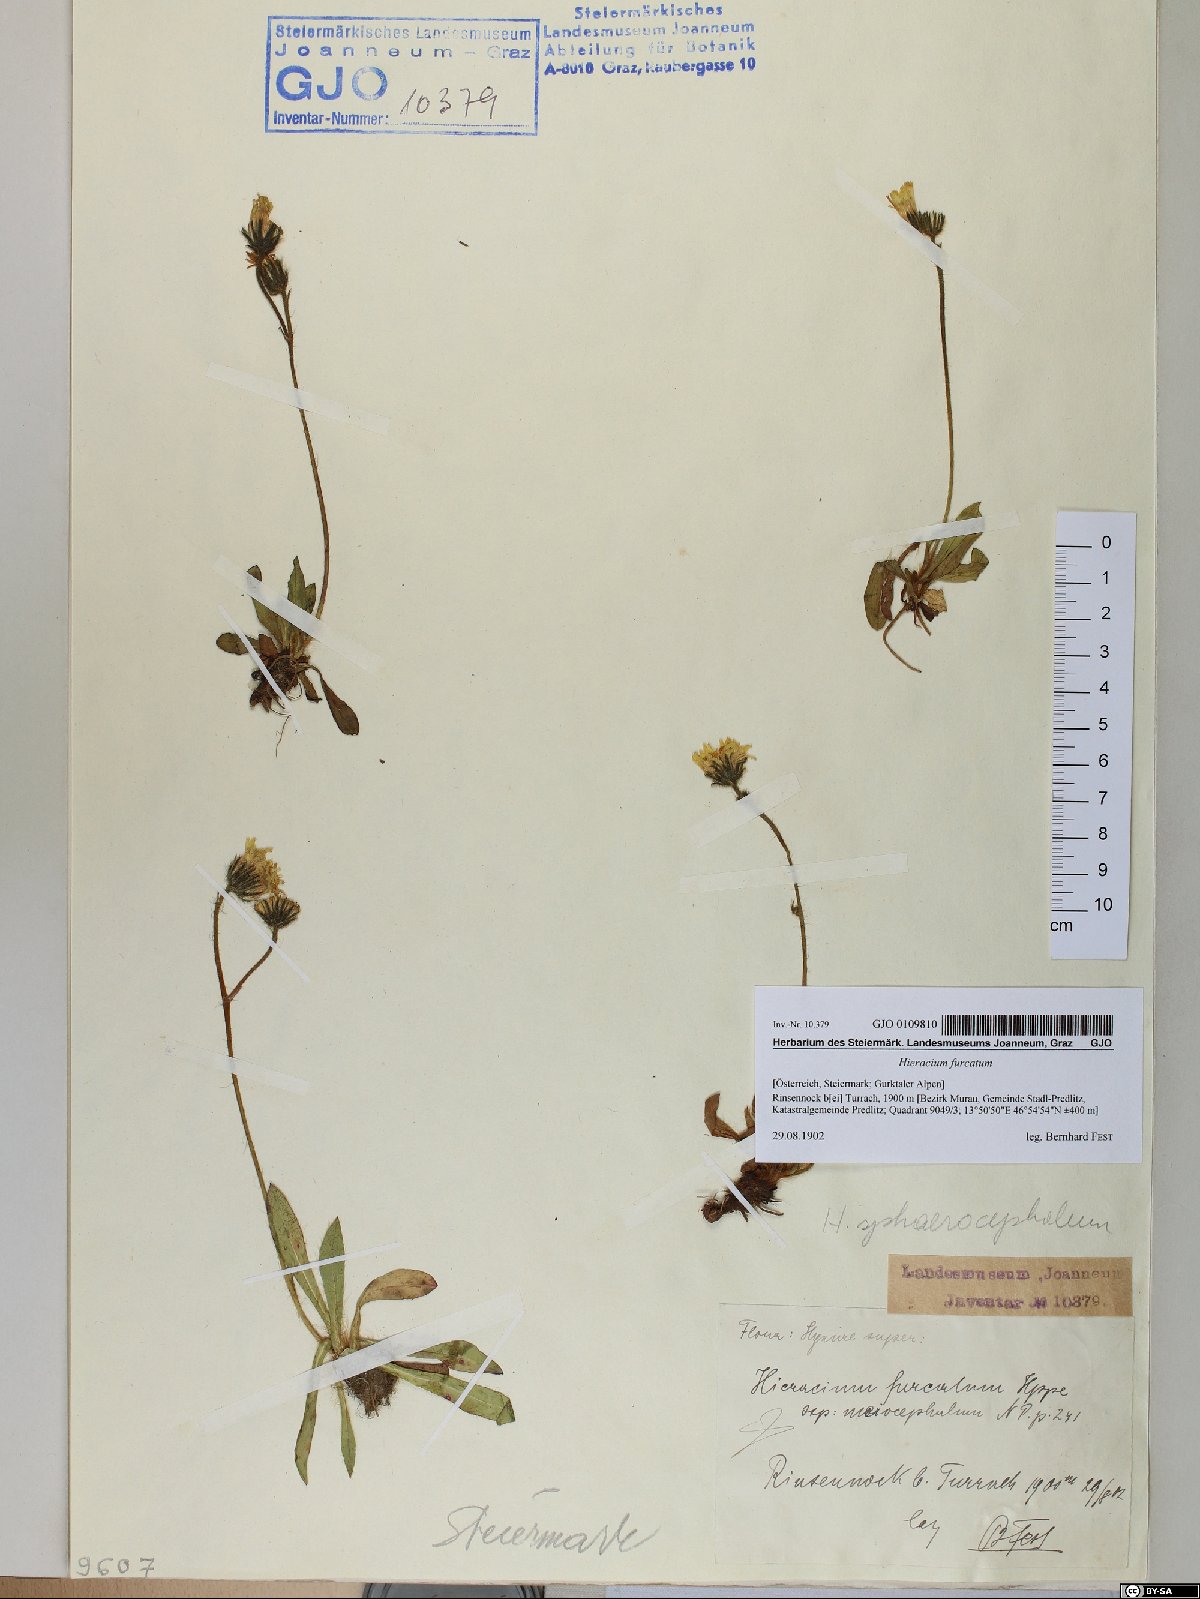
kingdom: Plantae
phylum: Tracheophyta
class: Magnoliopsida
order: Asterales
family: Asteraceae
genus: Pilosella
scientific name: Pilosella sphaerocephala
